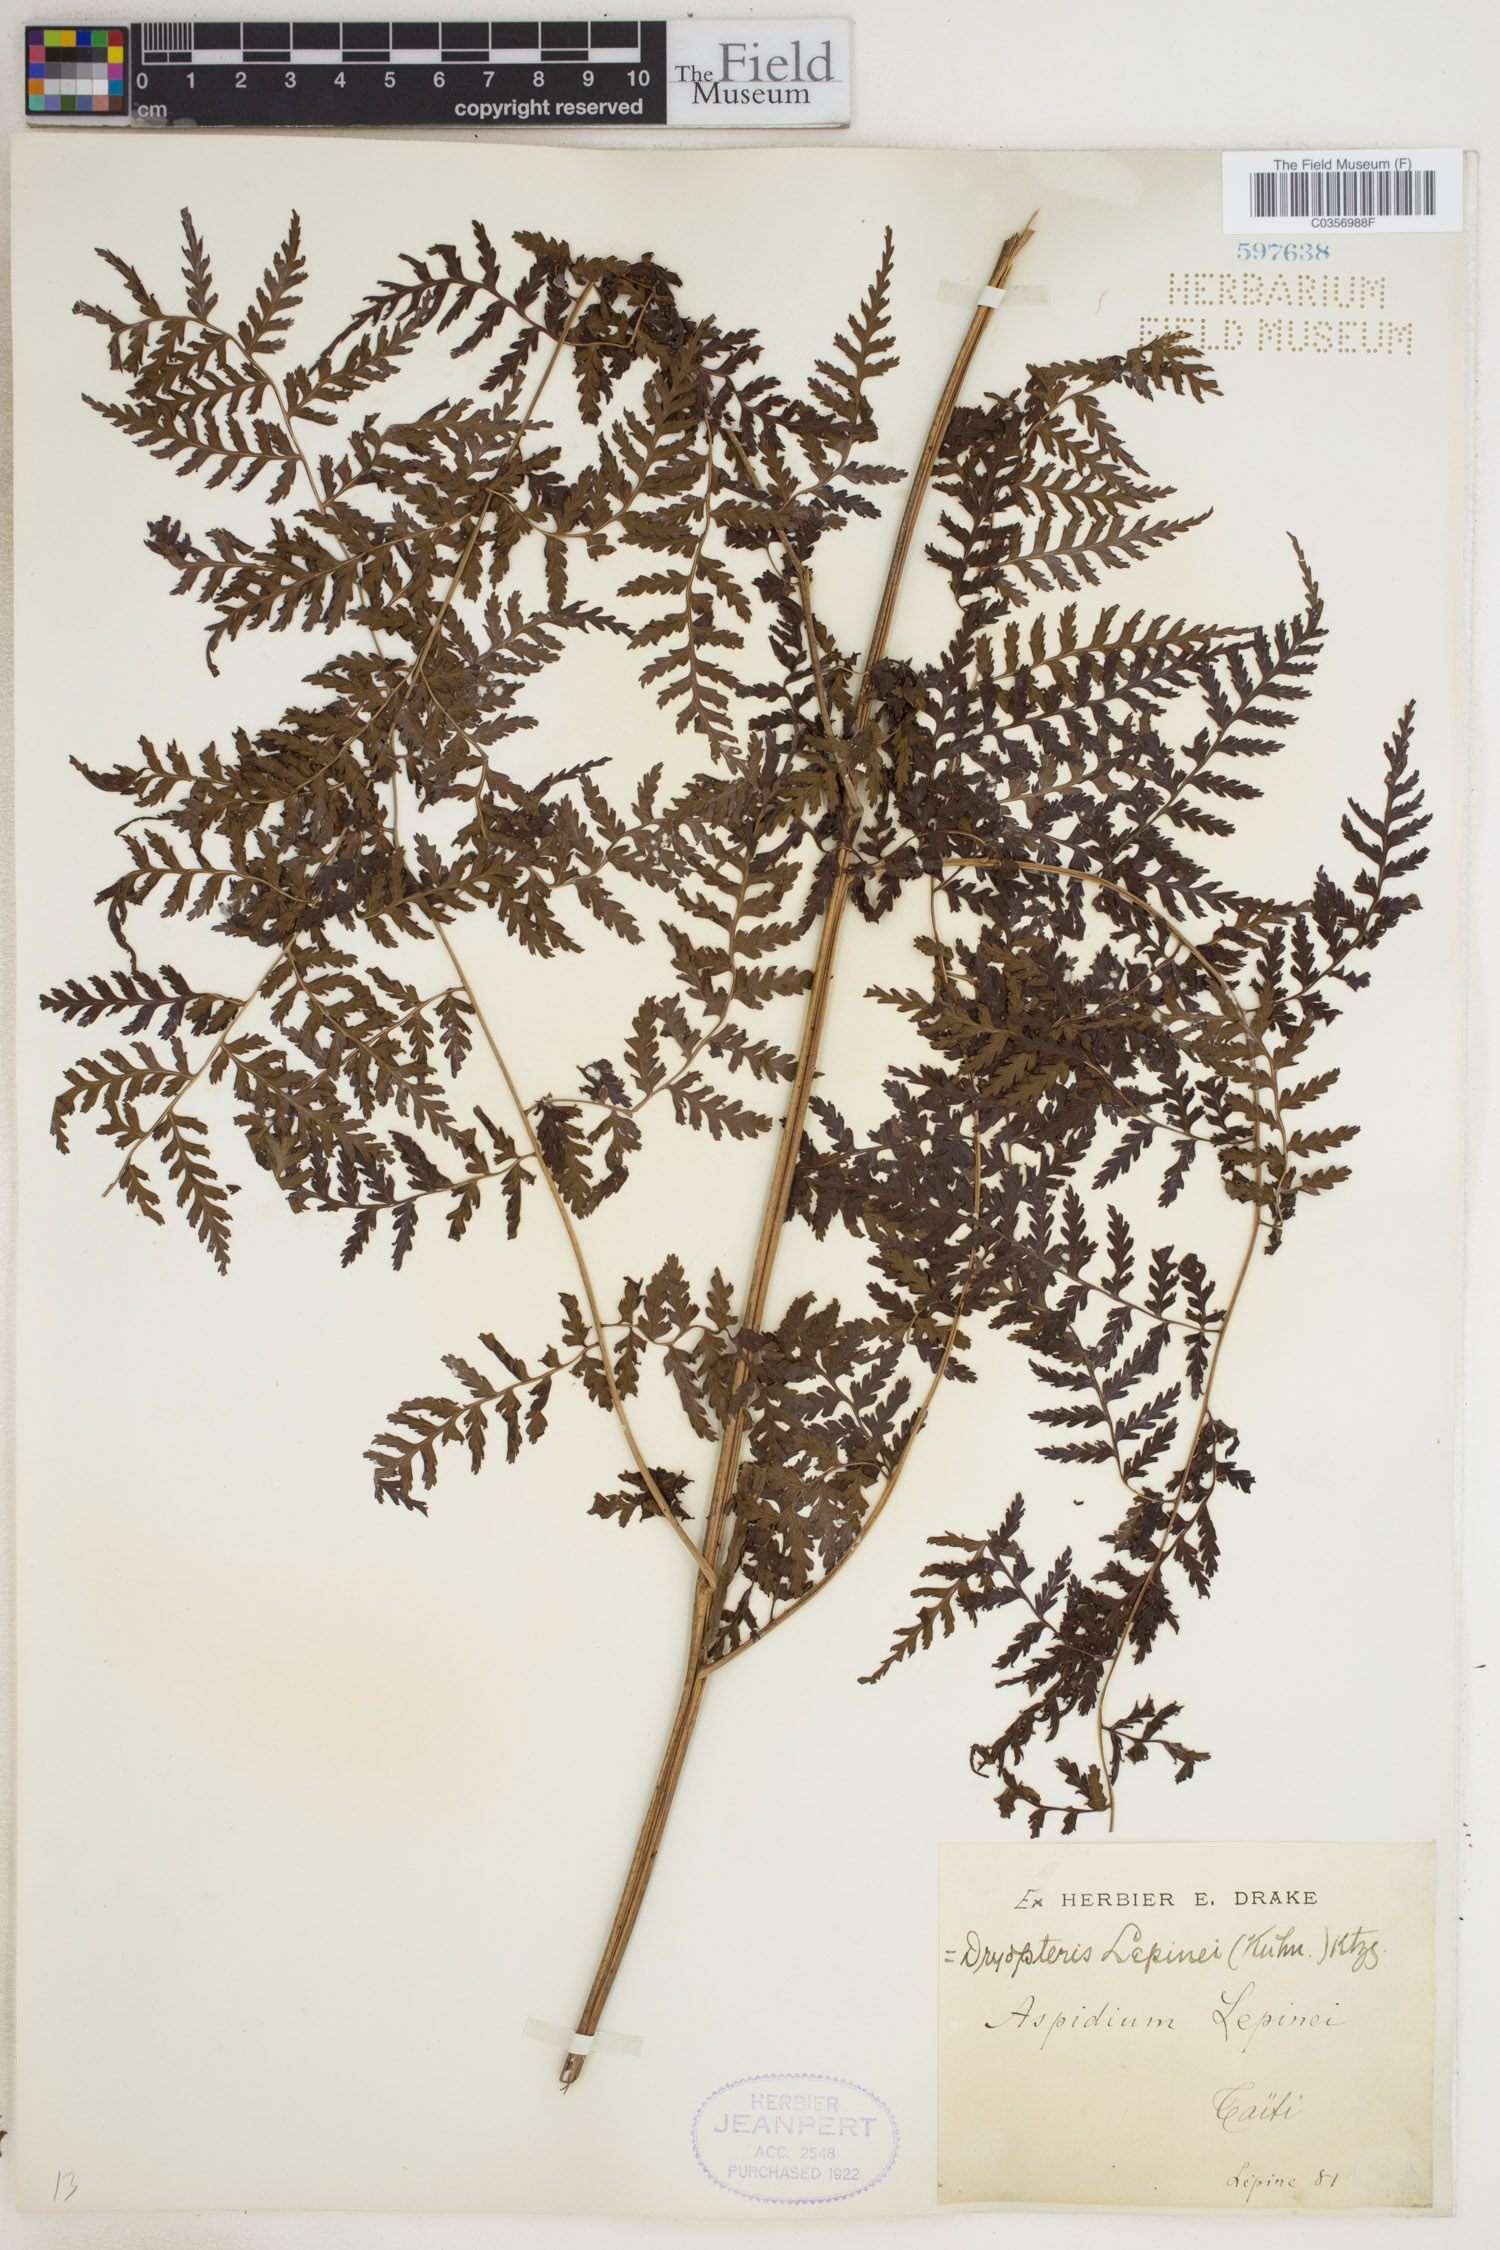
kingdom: Plantae
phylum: Tracheophyta
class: Polypodiopsida
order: Polypodiales
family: Dryopteridaceae
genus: Dryopteris
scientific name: Dryopteris lepinei
